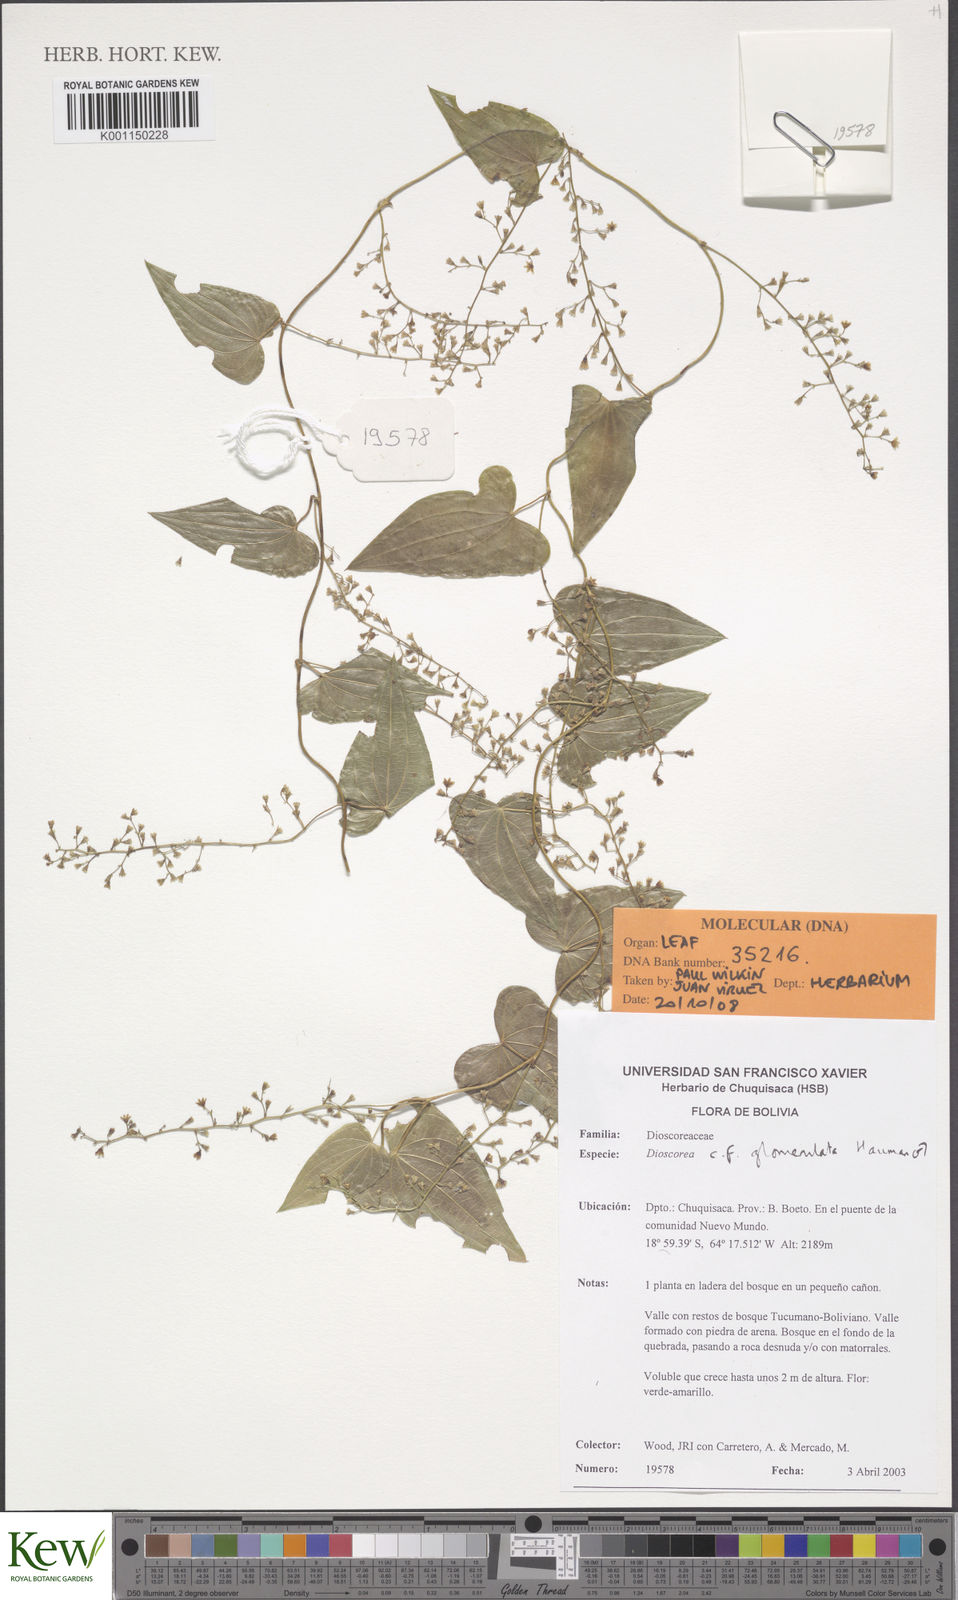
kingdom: Plantae
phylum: Tracheophyta
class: Liliopsida
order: Dioscoreales
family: Dioscoreaceae
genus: Dioscorea
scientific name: Dioscorea glomerulata
